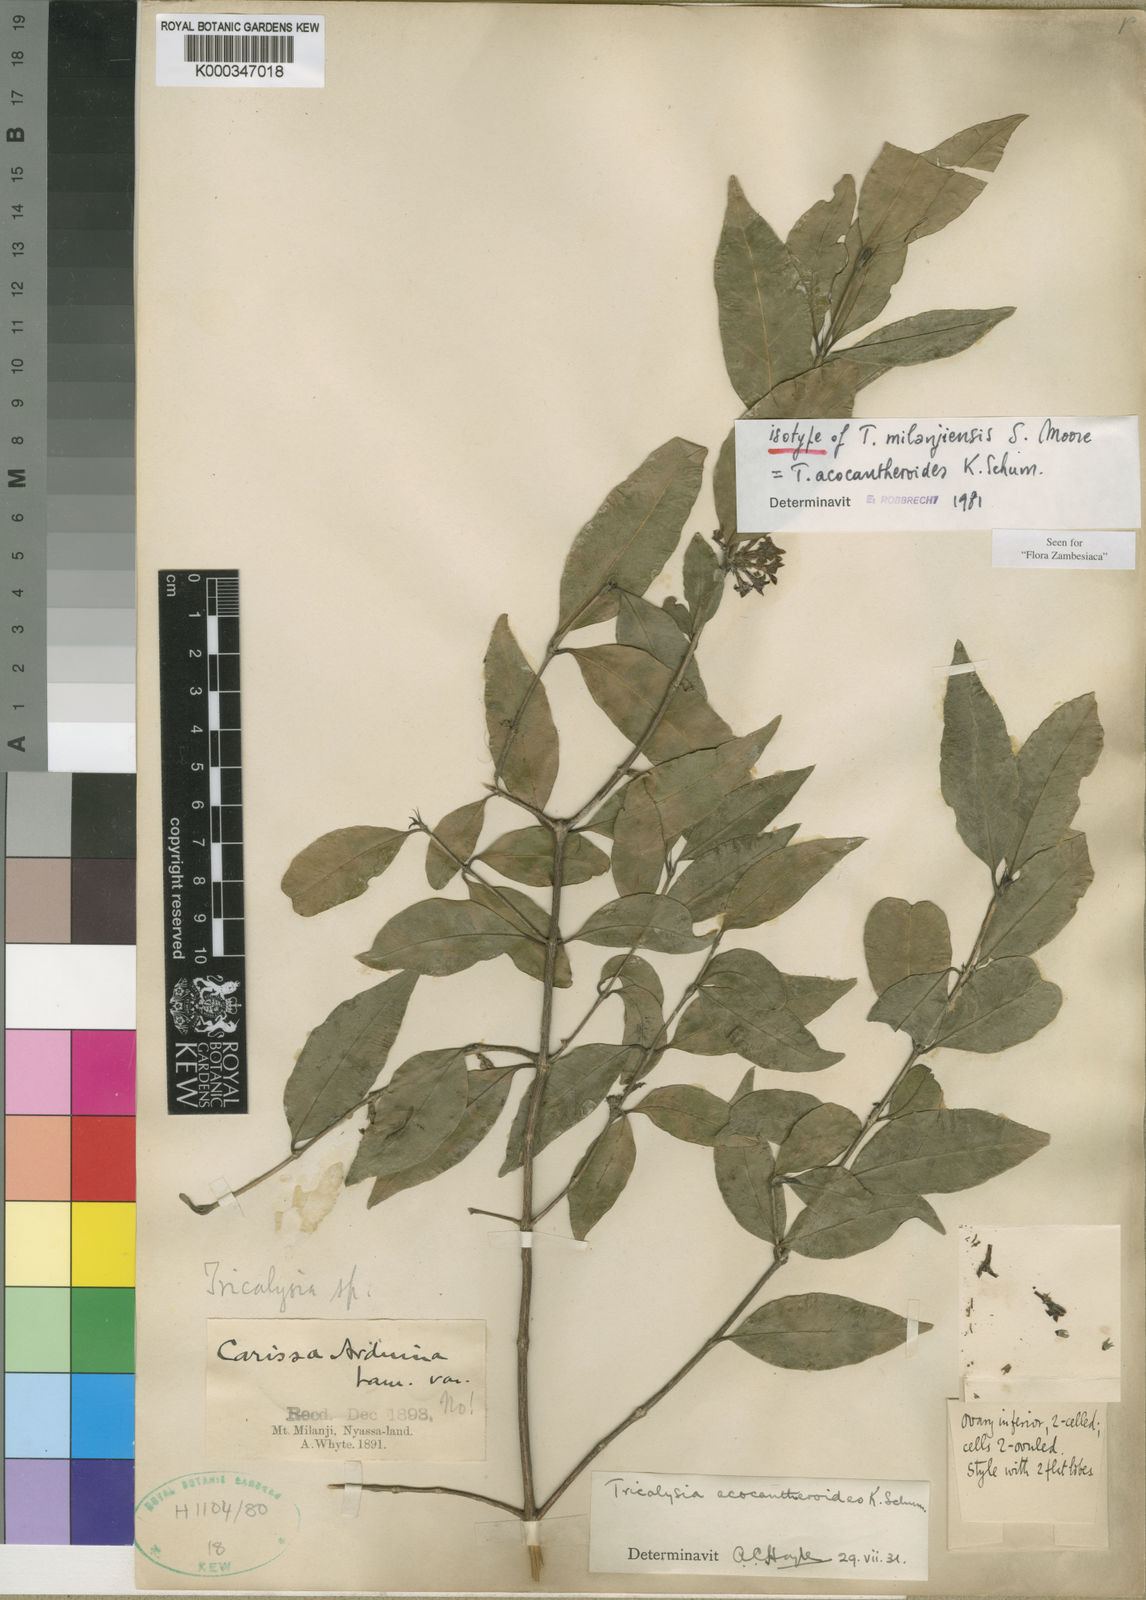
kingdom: Plantae
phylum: Tracheophyta
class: Magnoliopsida
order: Gentianales
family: Rubiaceae
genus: Tricalysia
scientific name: Tricalysia acocantheroides
